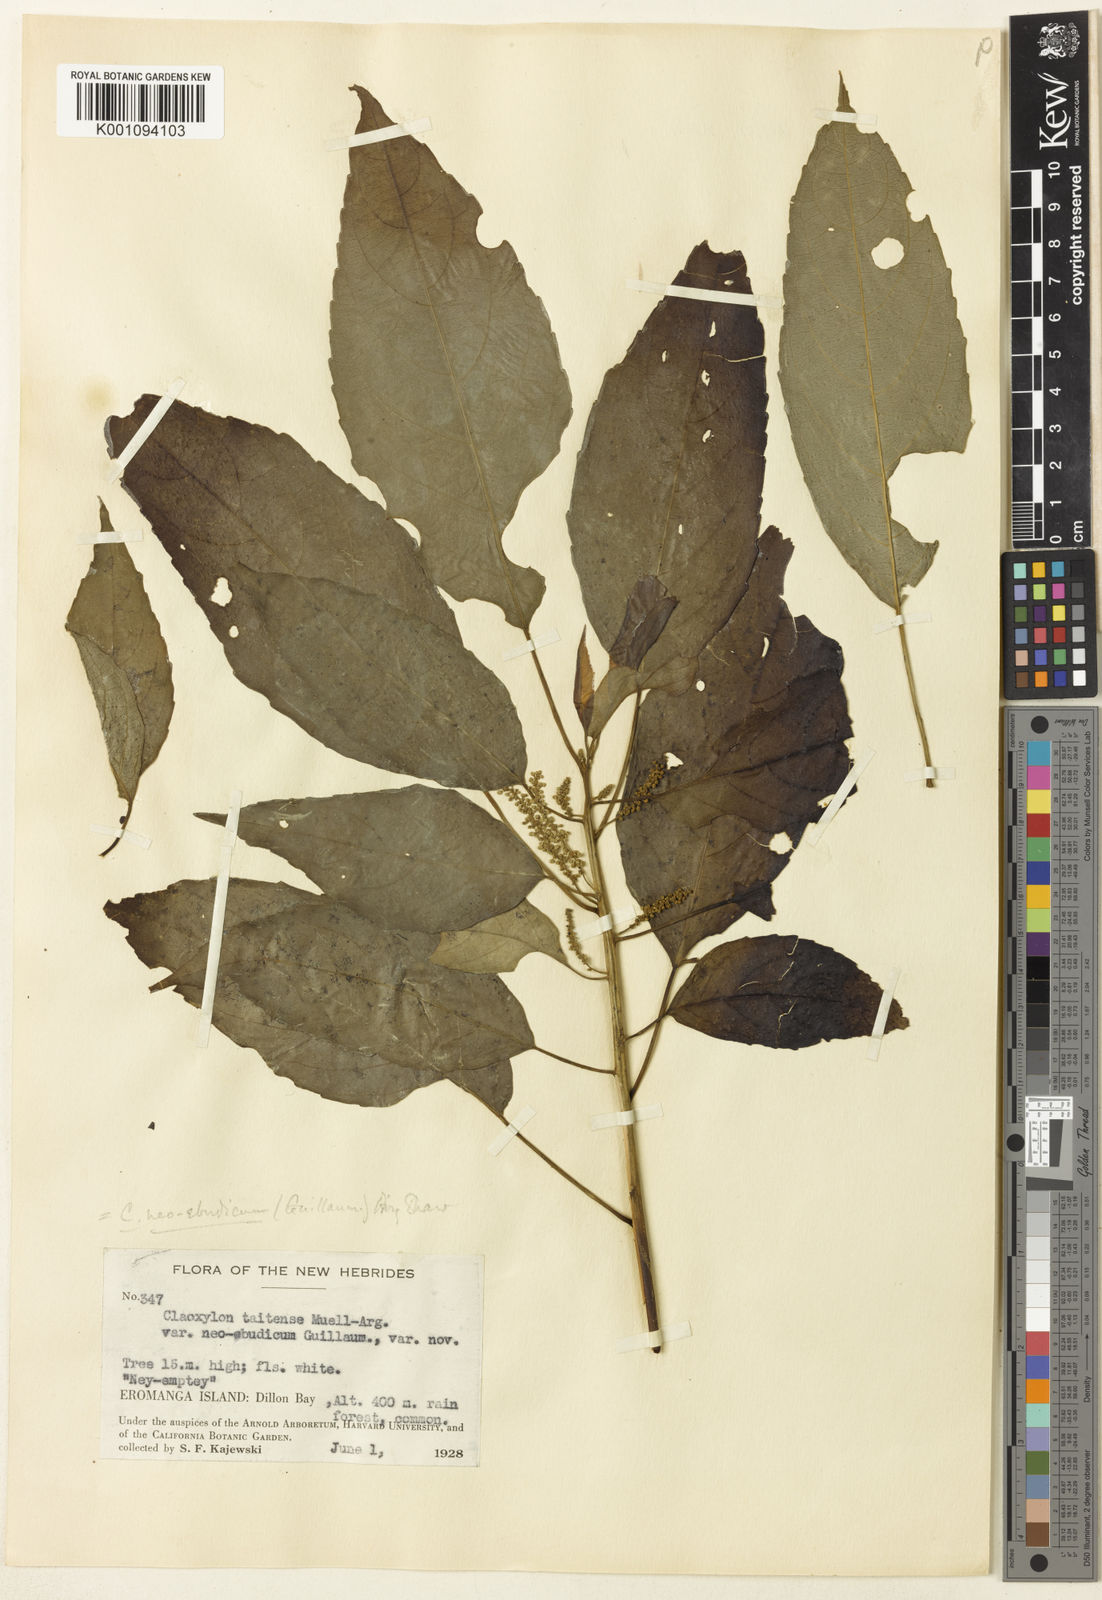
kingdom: Plantae
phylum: Tracheophyta
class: Magnoliopsida
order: Malpighiales
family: Euphorbiaceae
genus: Claoxylon
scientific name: Claoxylon neoebudicum
